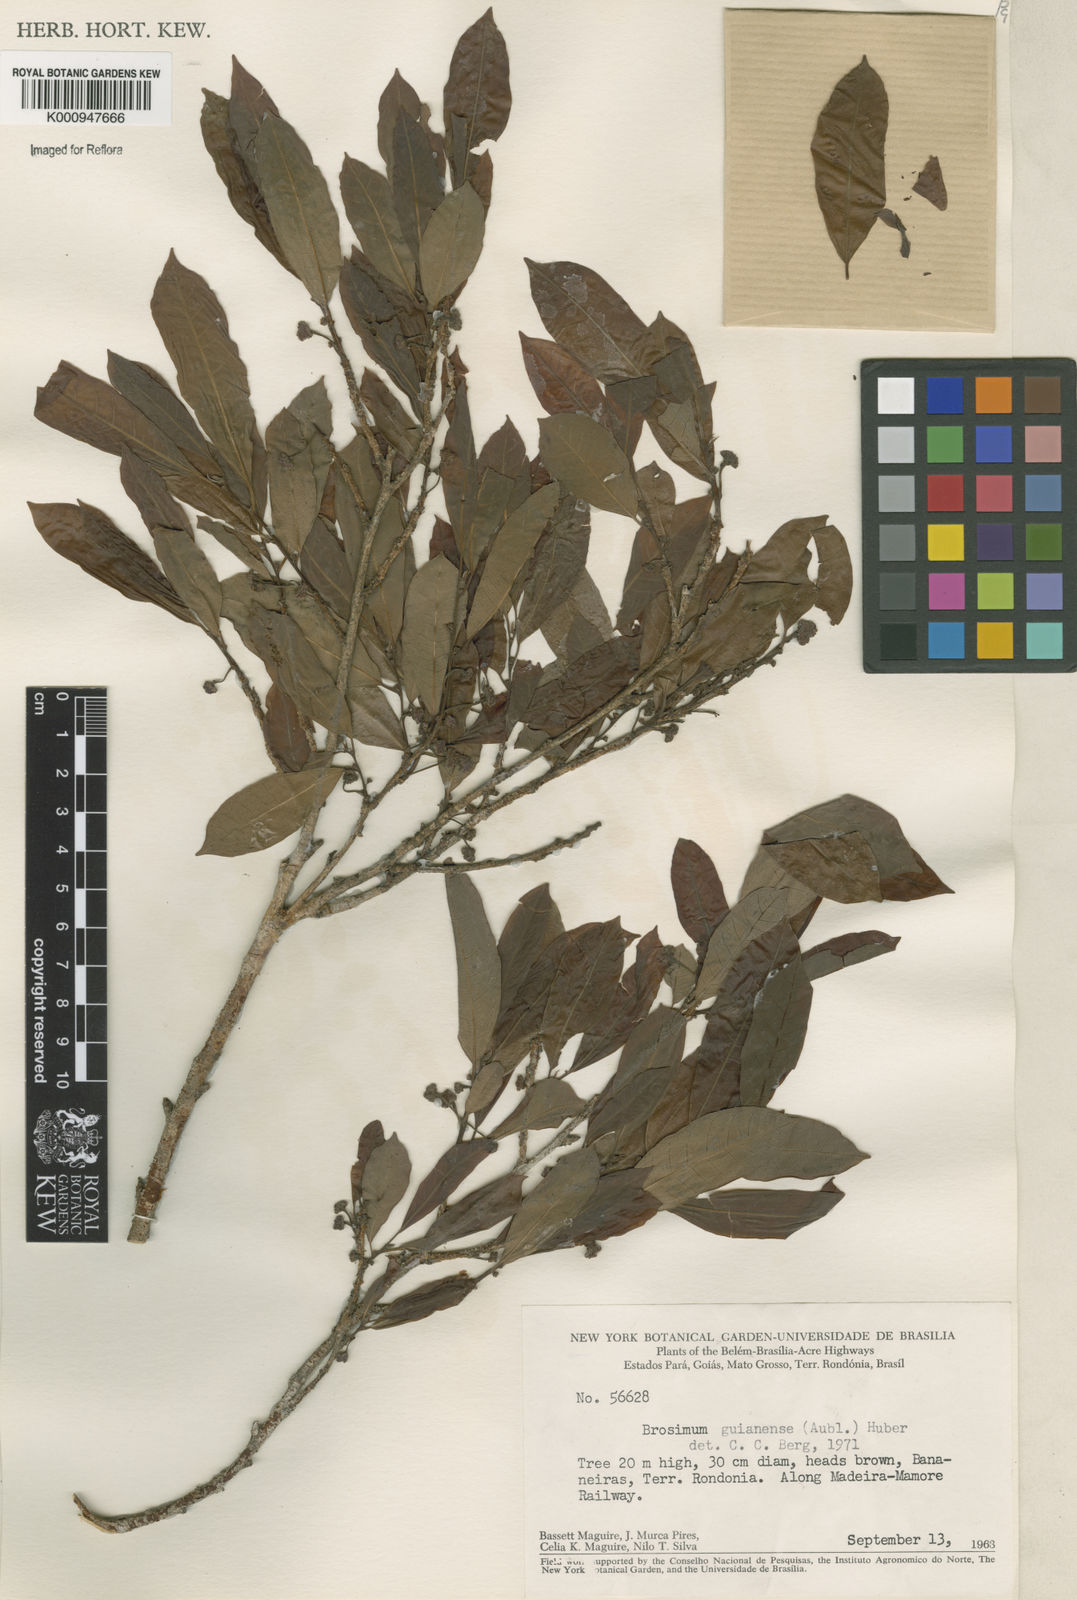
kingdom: Plantae
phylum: Tracheophyta
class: Magnoliopsida
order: Rosales
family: Moraceae
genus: Brosimum
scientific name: Brosimum
